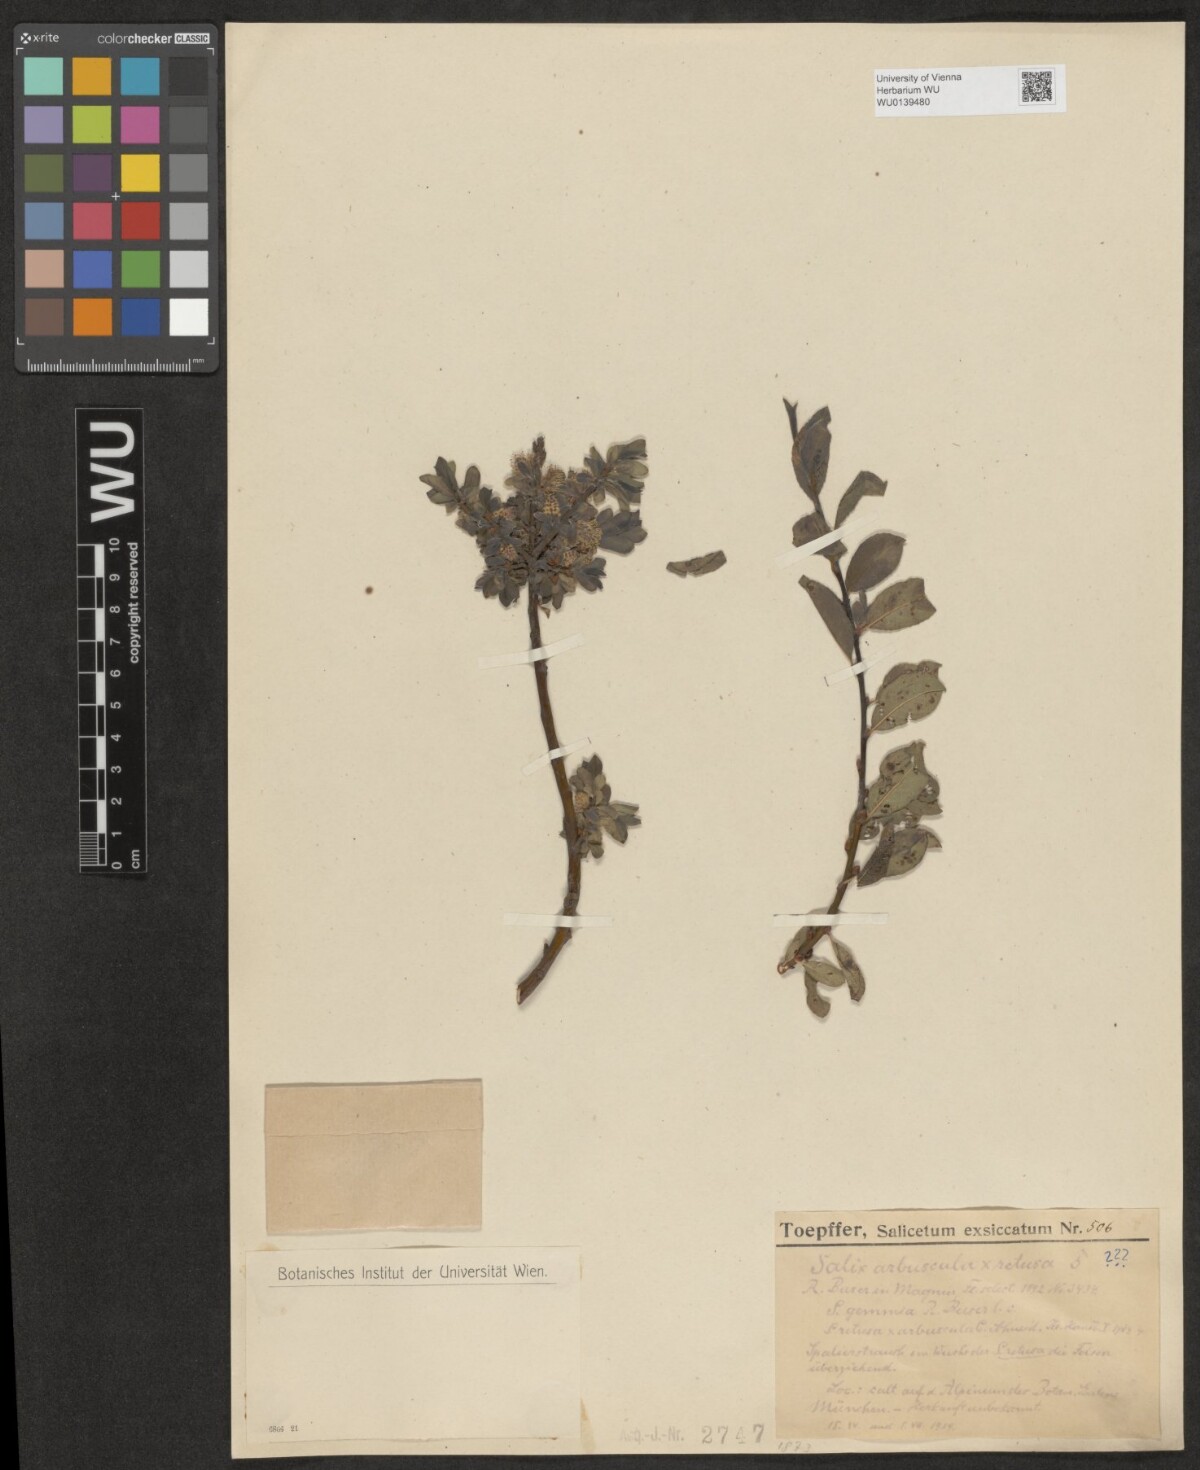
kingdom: Plantae
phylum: Tracheophyta
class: Magnoliopsida
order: Malpighiales
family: Salicaceae
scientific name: Salicaceae
